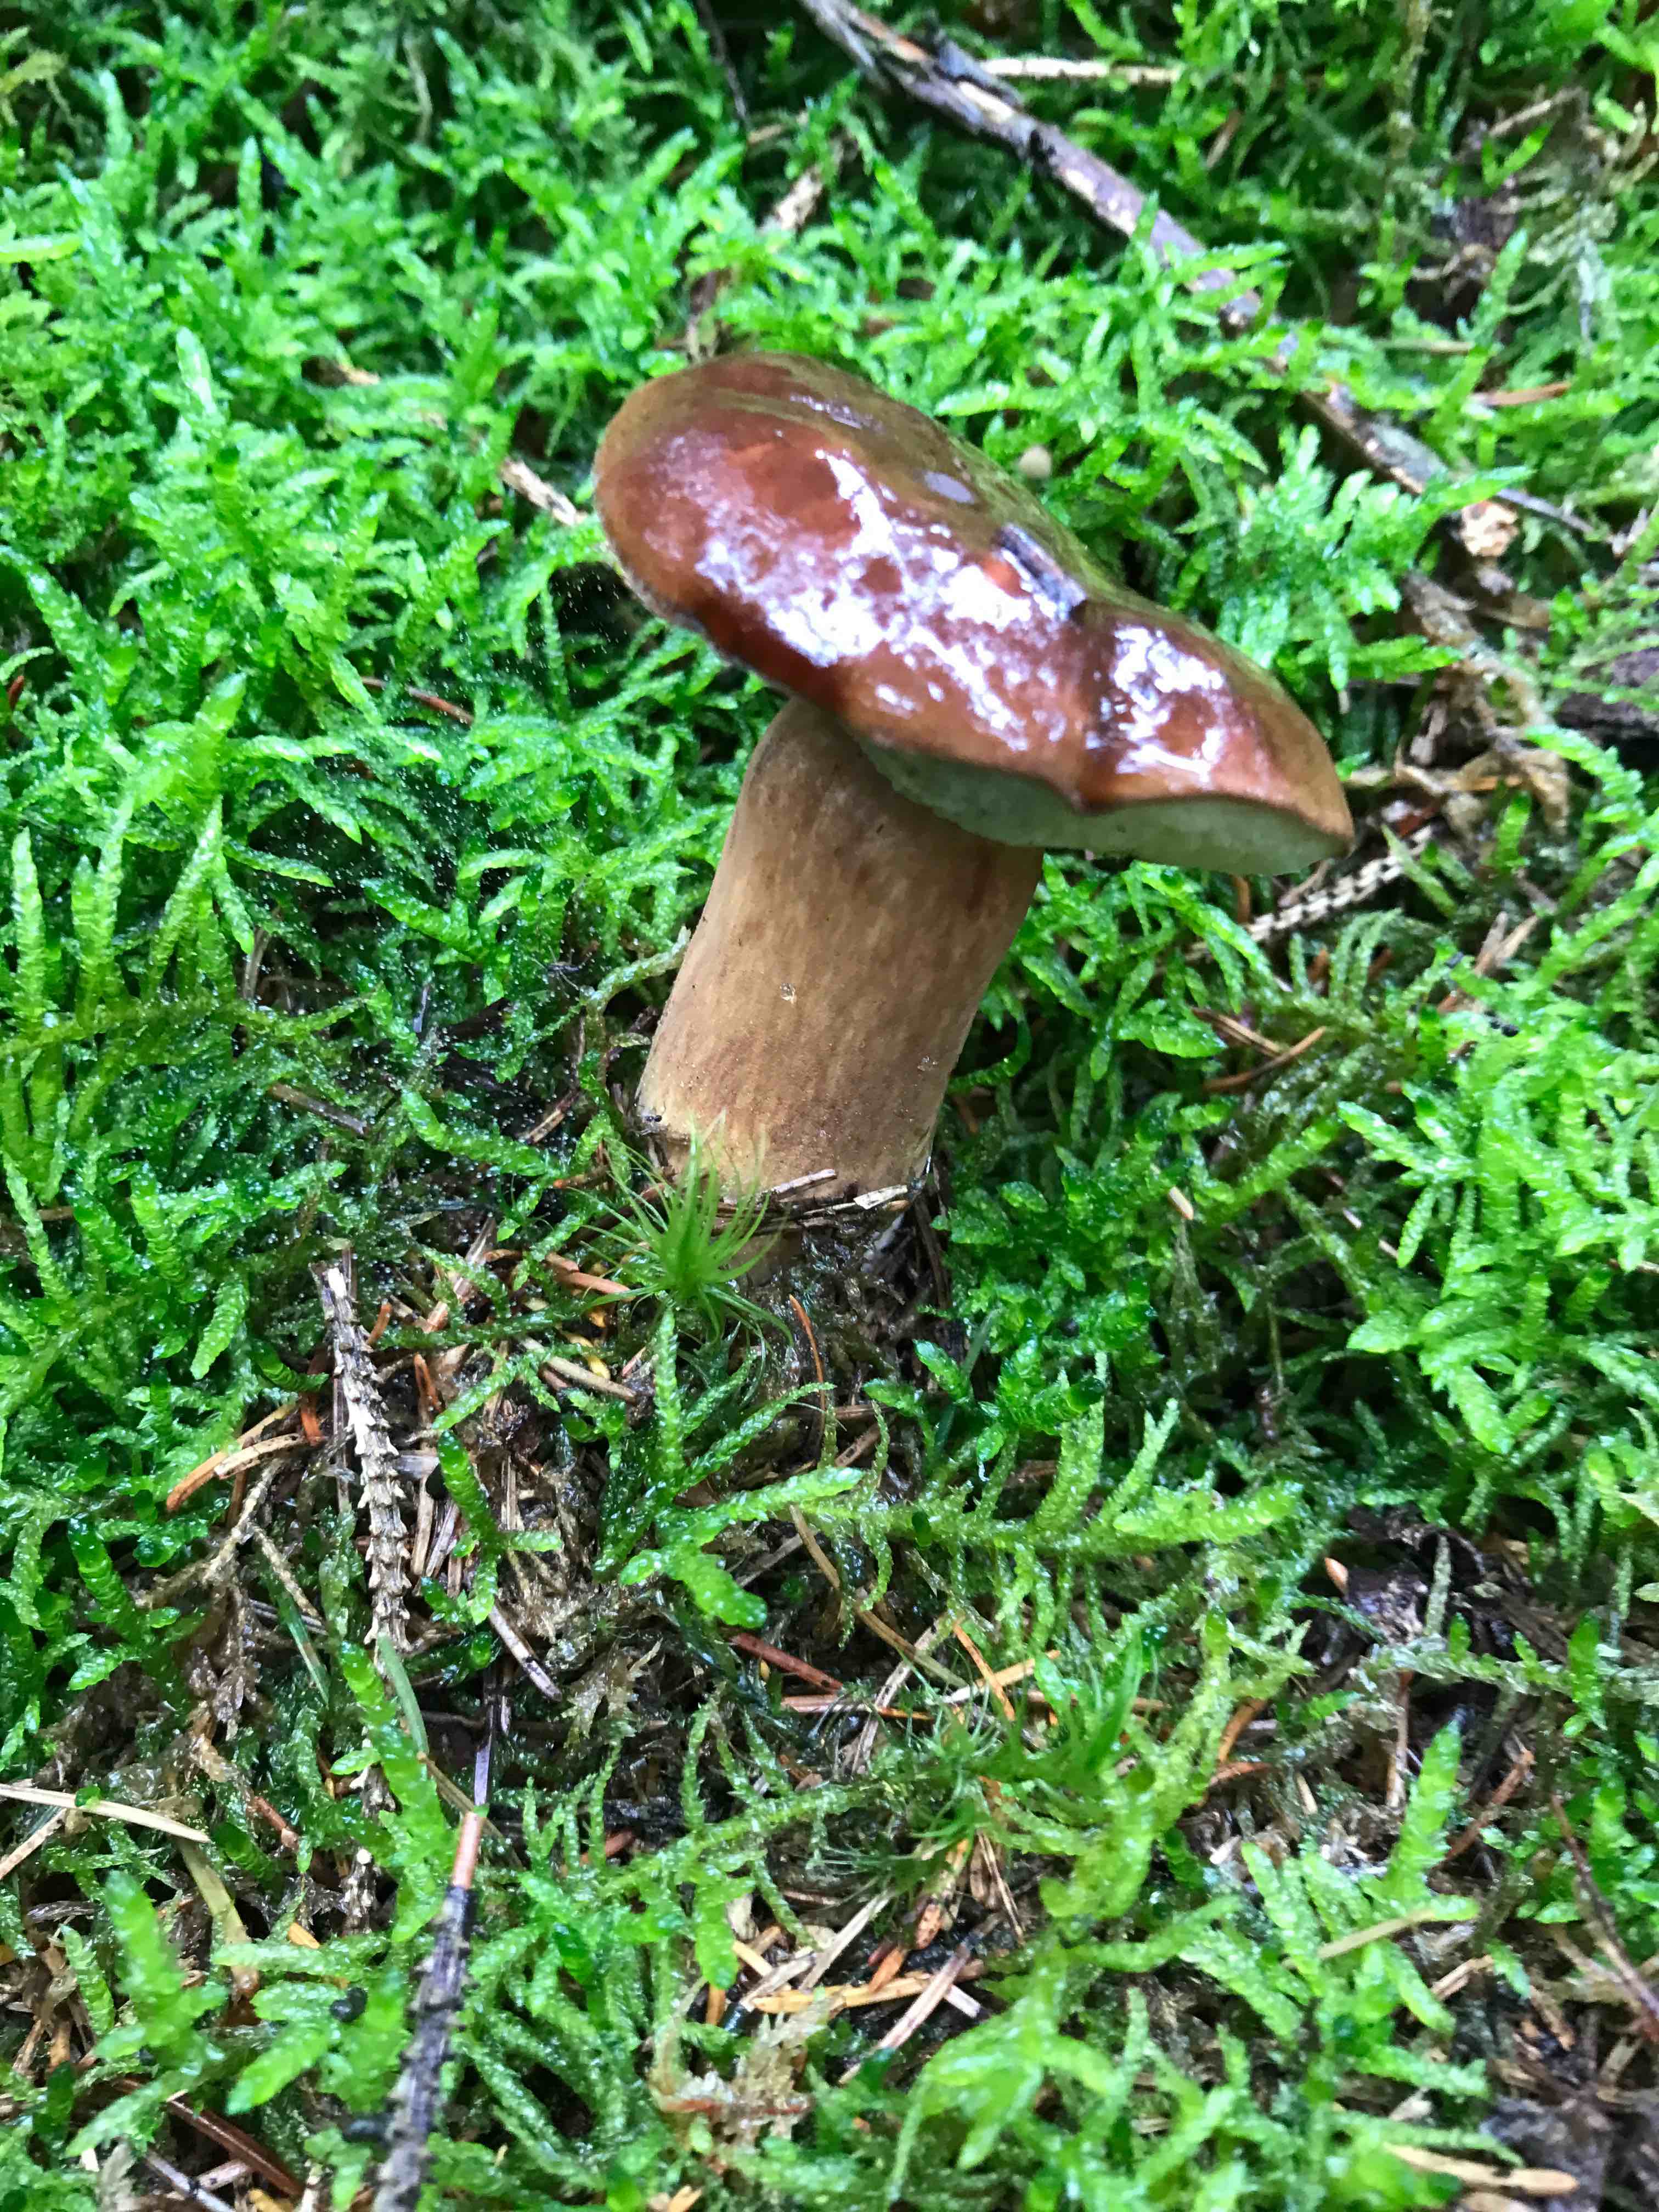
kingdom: Fungi
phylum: Basidiomycota
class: Agaricomycetes
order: Boletales
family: Boletaceae
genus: Imleria
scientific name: Imleria badia
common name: brunstokket rørhat
